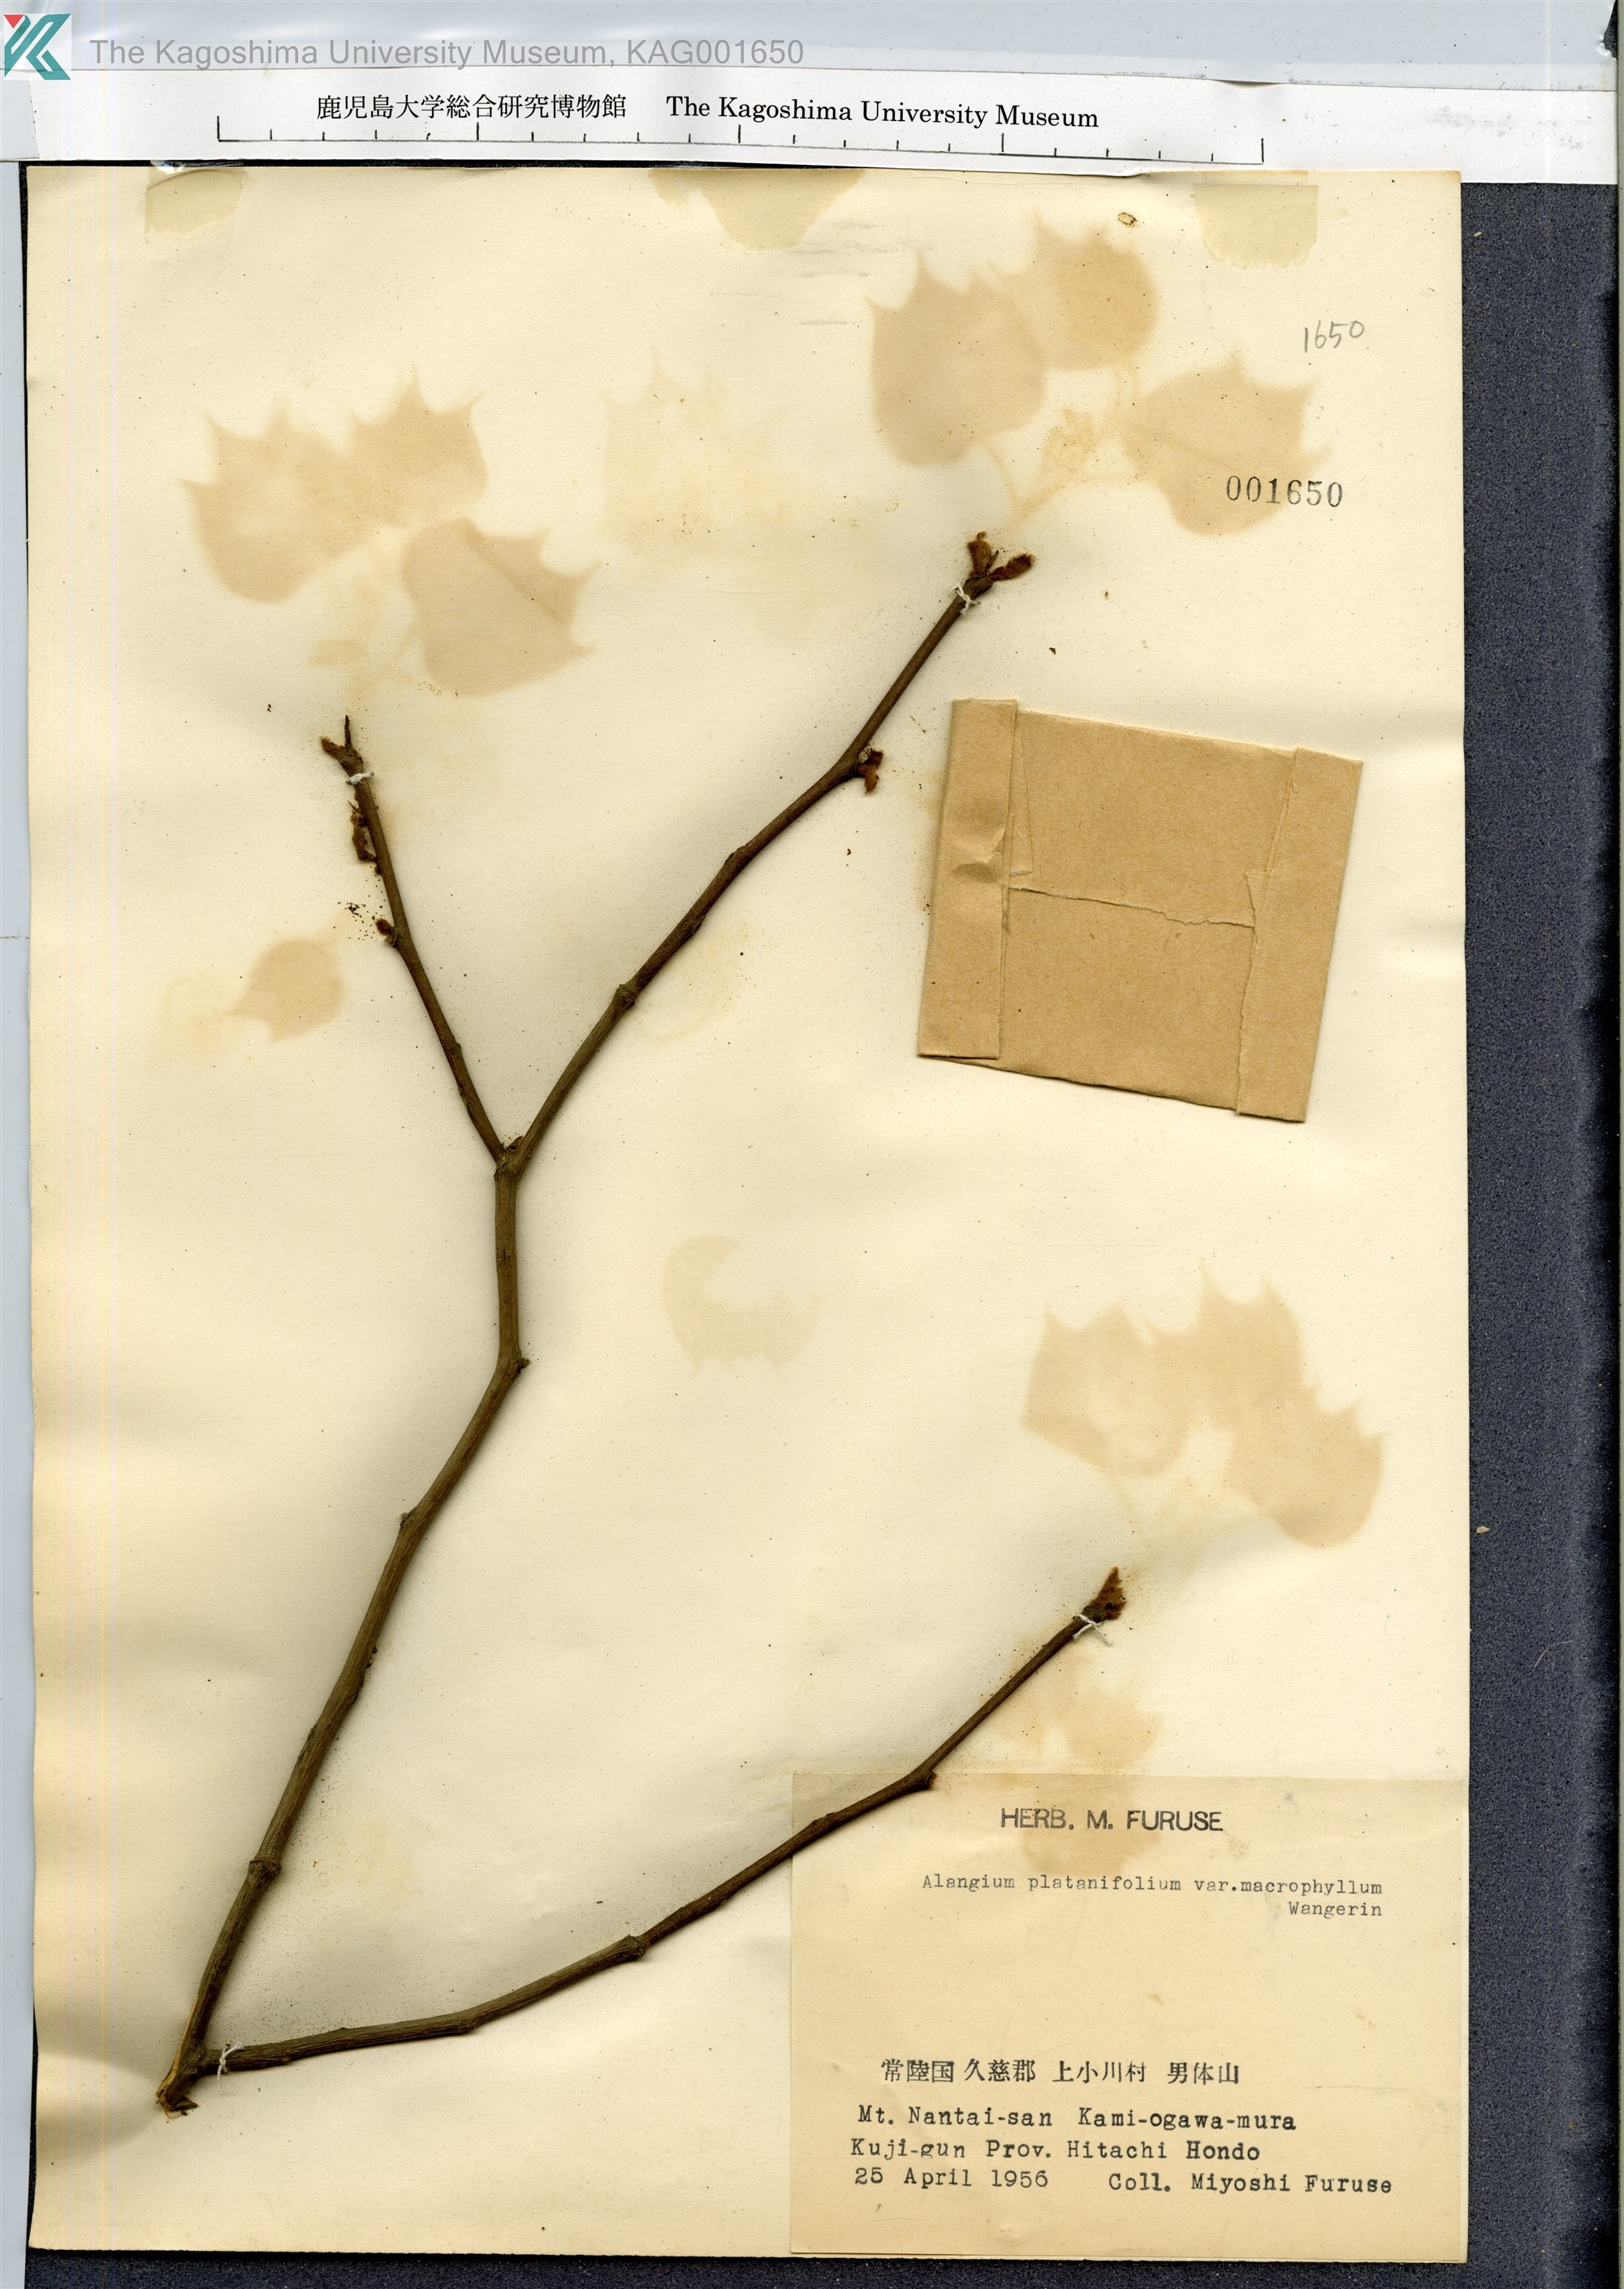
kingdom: Plantae
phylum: Tracheophyta
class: Magnoliopsida
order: Cornales
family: Cornaceae
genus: Alangium
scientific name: Alangium platanifolium
